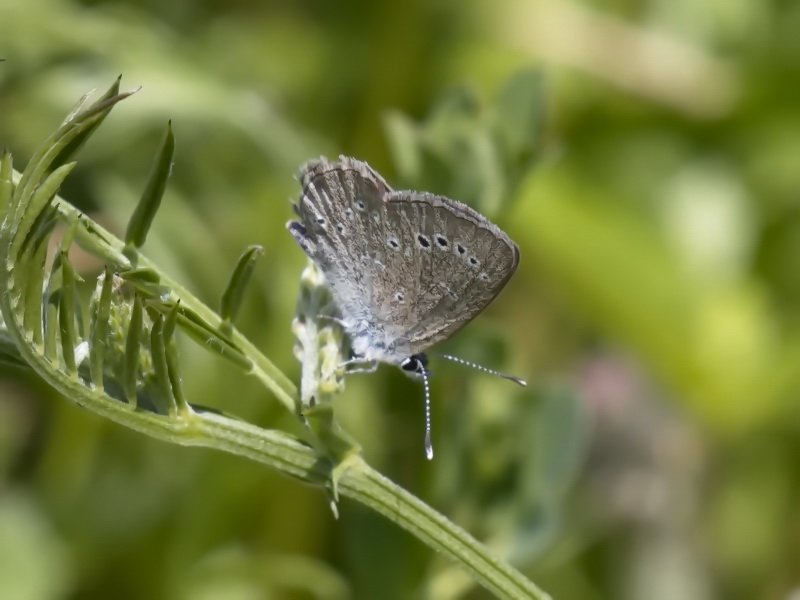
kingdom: Animalia
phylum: Arthropoda
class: Insecta
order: Lepidoptera
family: Lycaenidae
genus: Glaucopsyche
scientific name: Glaucopsyche lygdamus
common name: Silvery Blue
